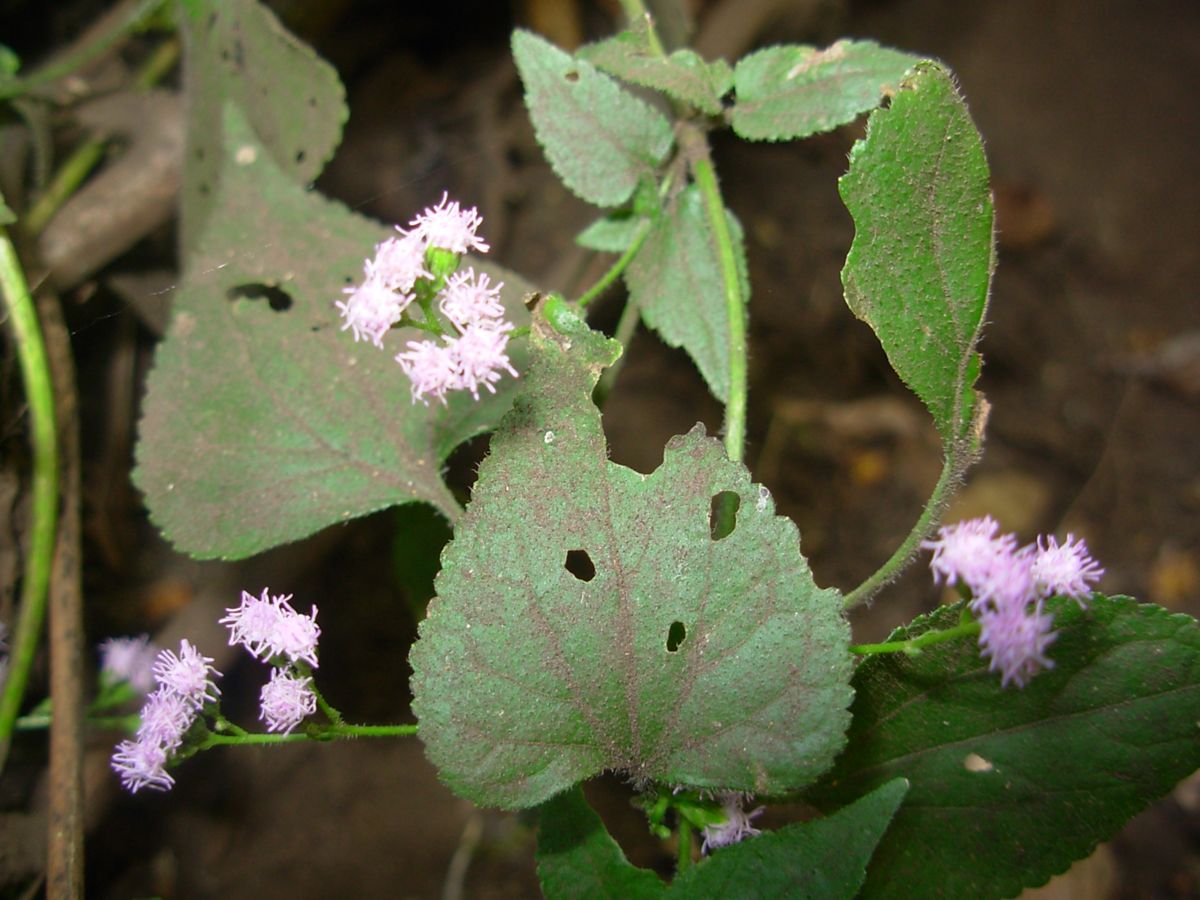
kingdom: Plantae
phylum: Tracheophyta
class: Magnoliopsida
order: Asterales
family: Asteraceae
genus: Ageratum
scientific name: Ageratum
